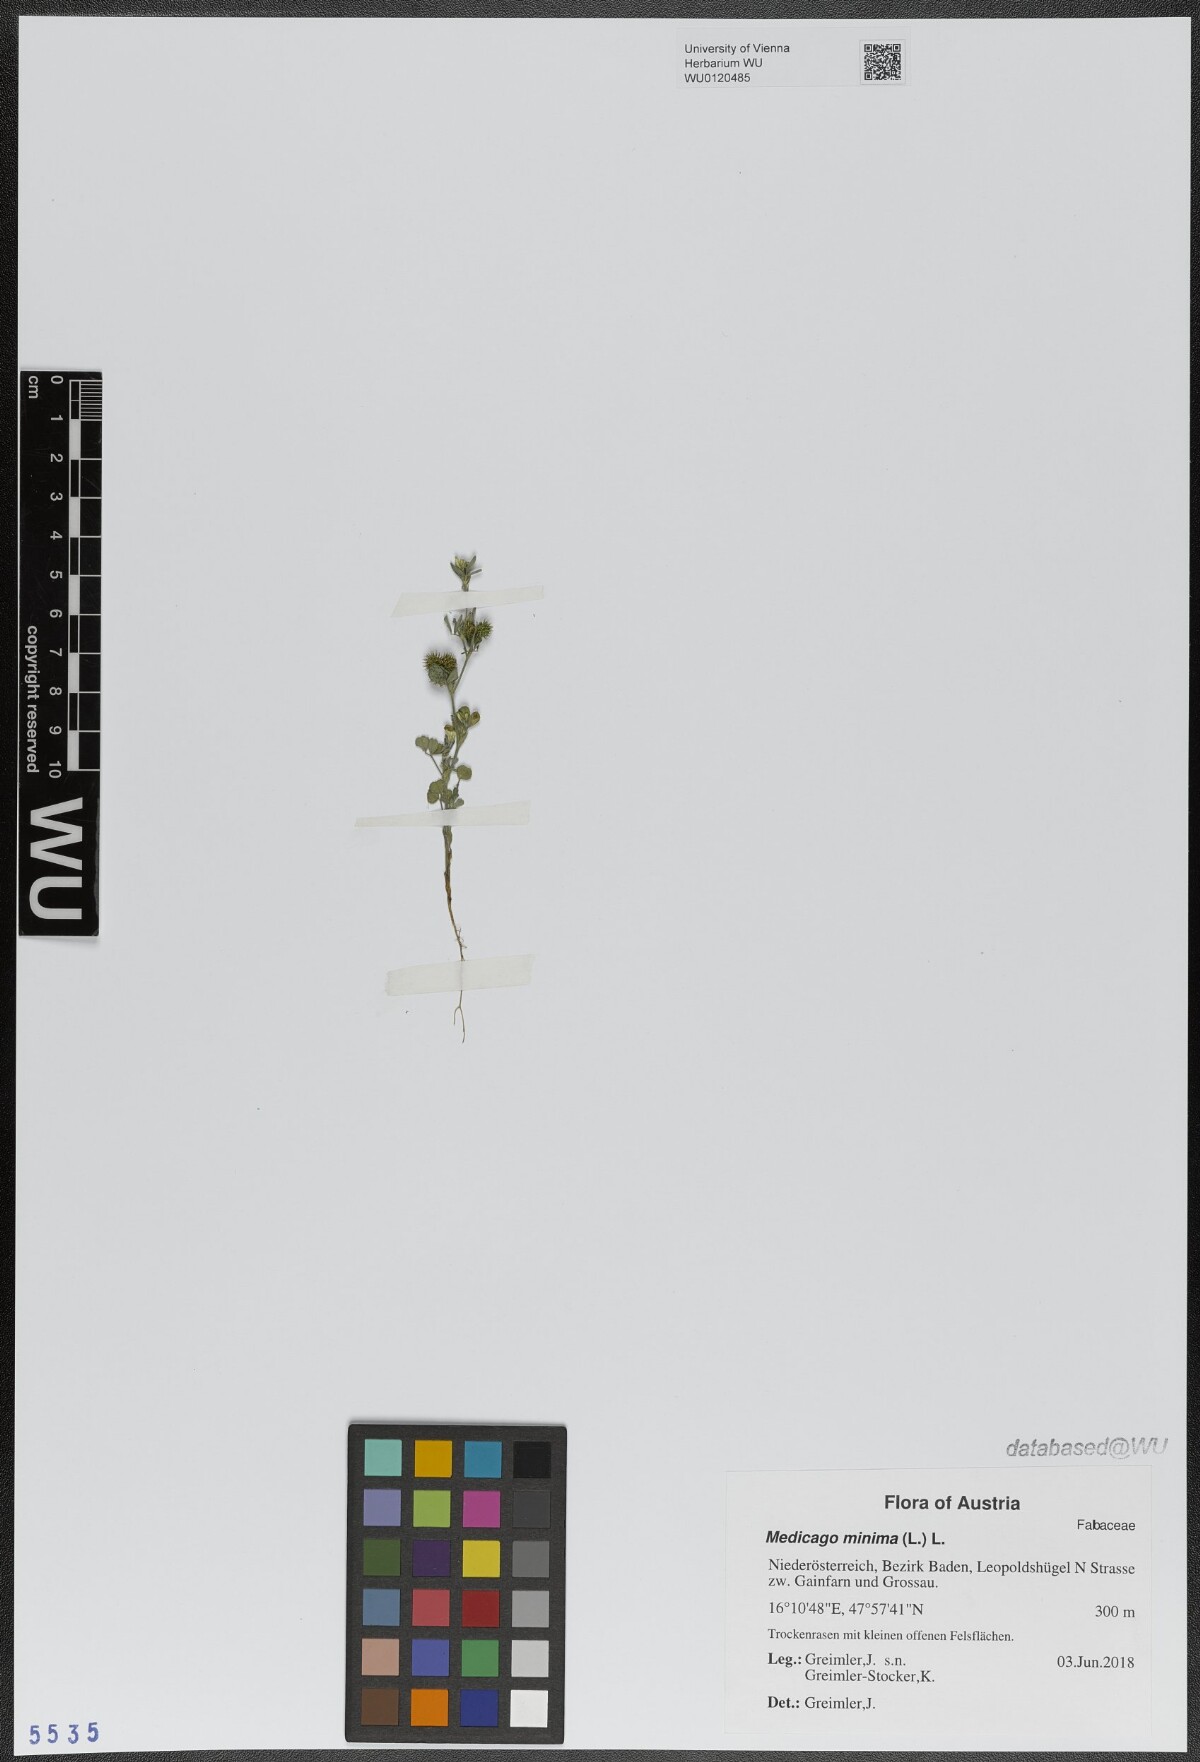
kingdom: Plantae
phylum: Tracheophyta
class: Magnoliopsida
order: Fabales
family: Fabaceae
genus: Medicago
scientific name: Medicago minima
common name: Little bur-clover
